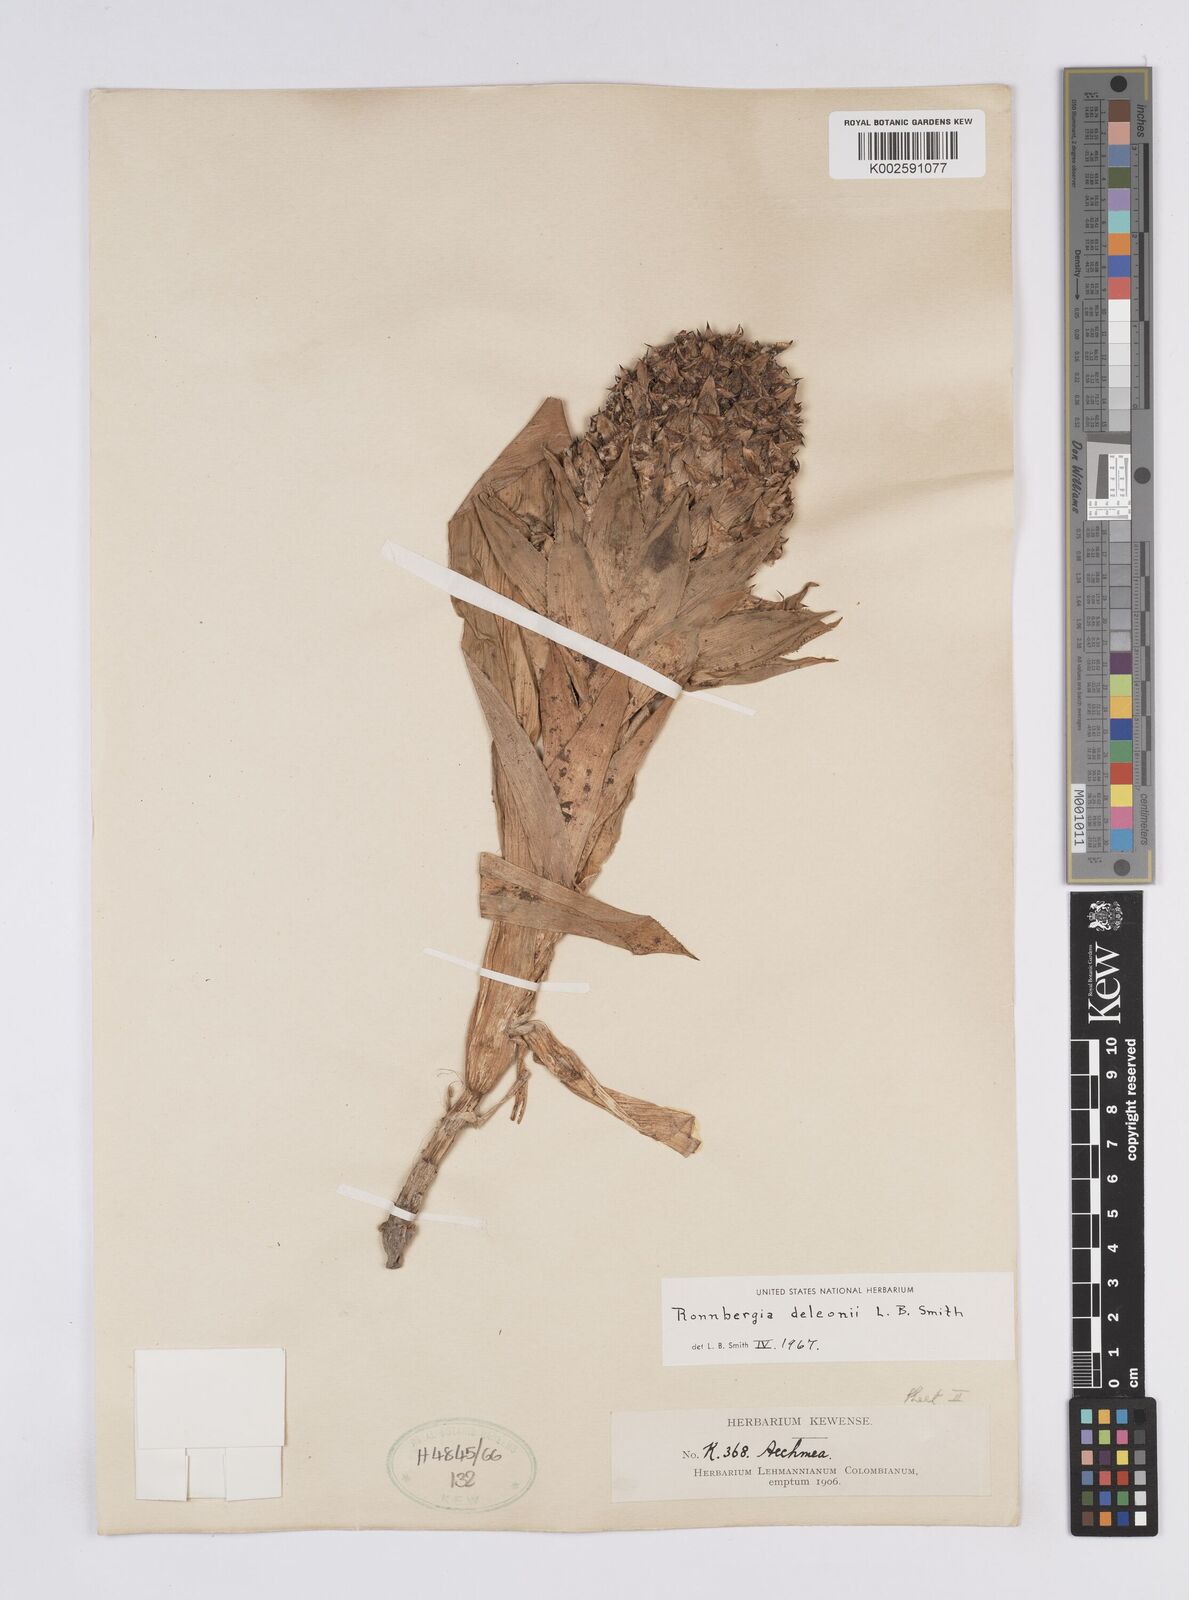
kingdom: Plantae
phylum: Tracheophyta
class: Liliopsida
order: Poales
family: Bromeliaceae
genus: Ronnbergia
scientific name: Ronnbergia deleonii
